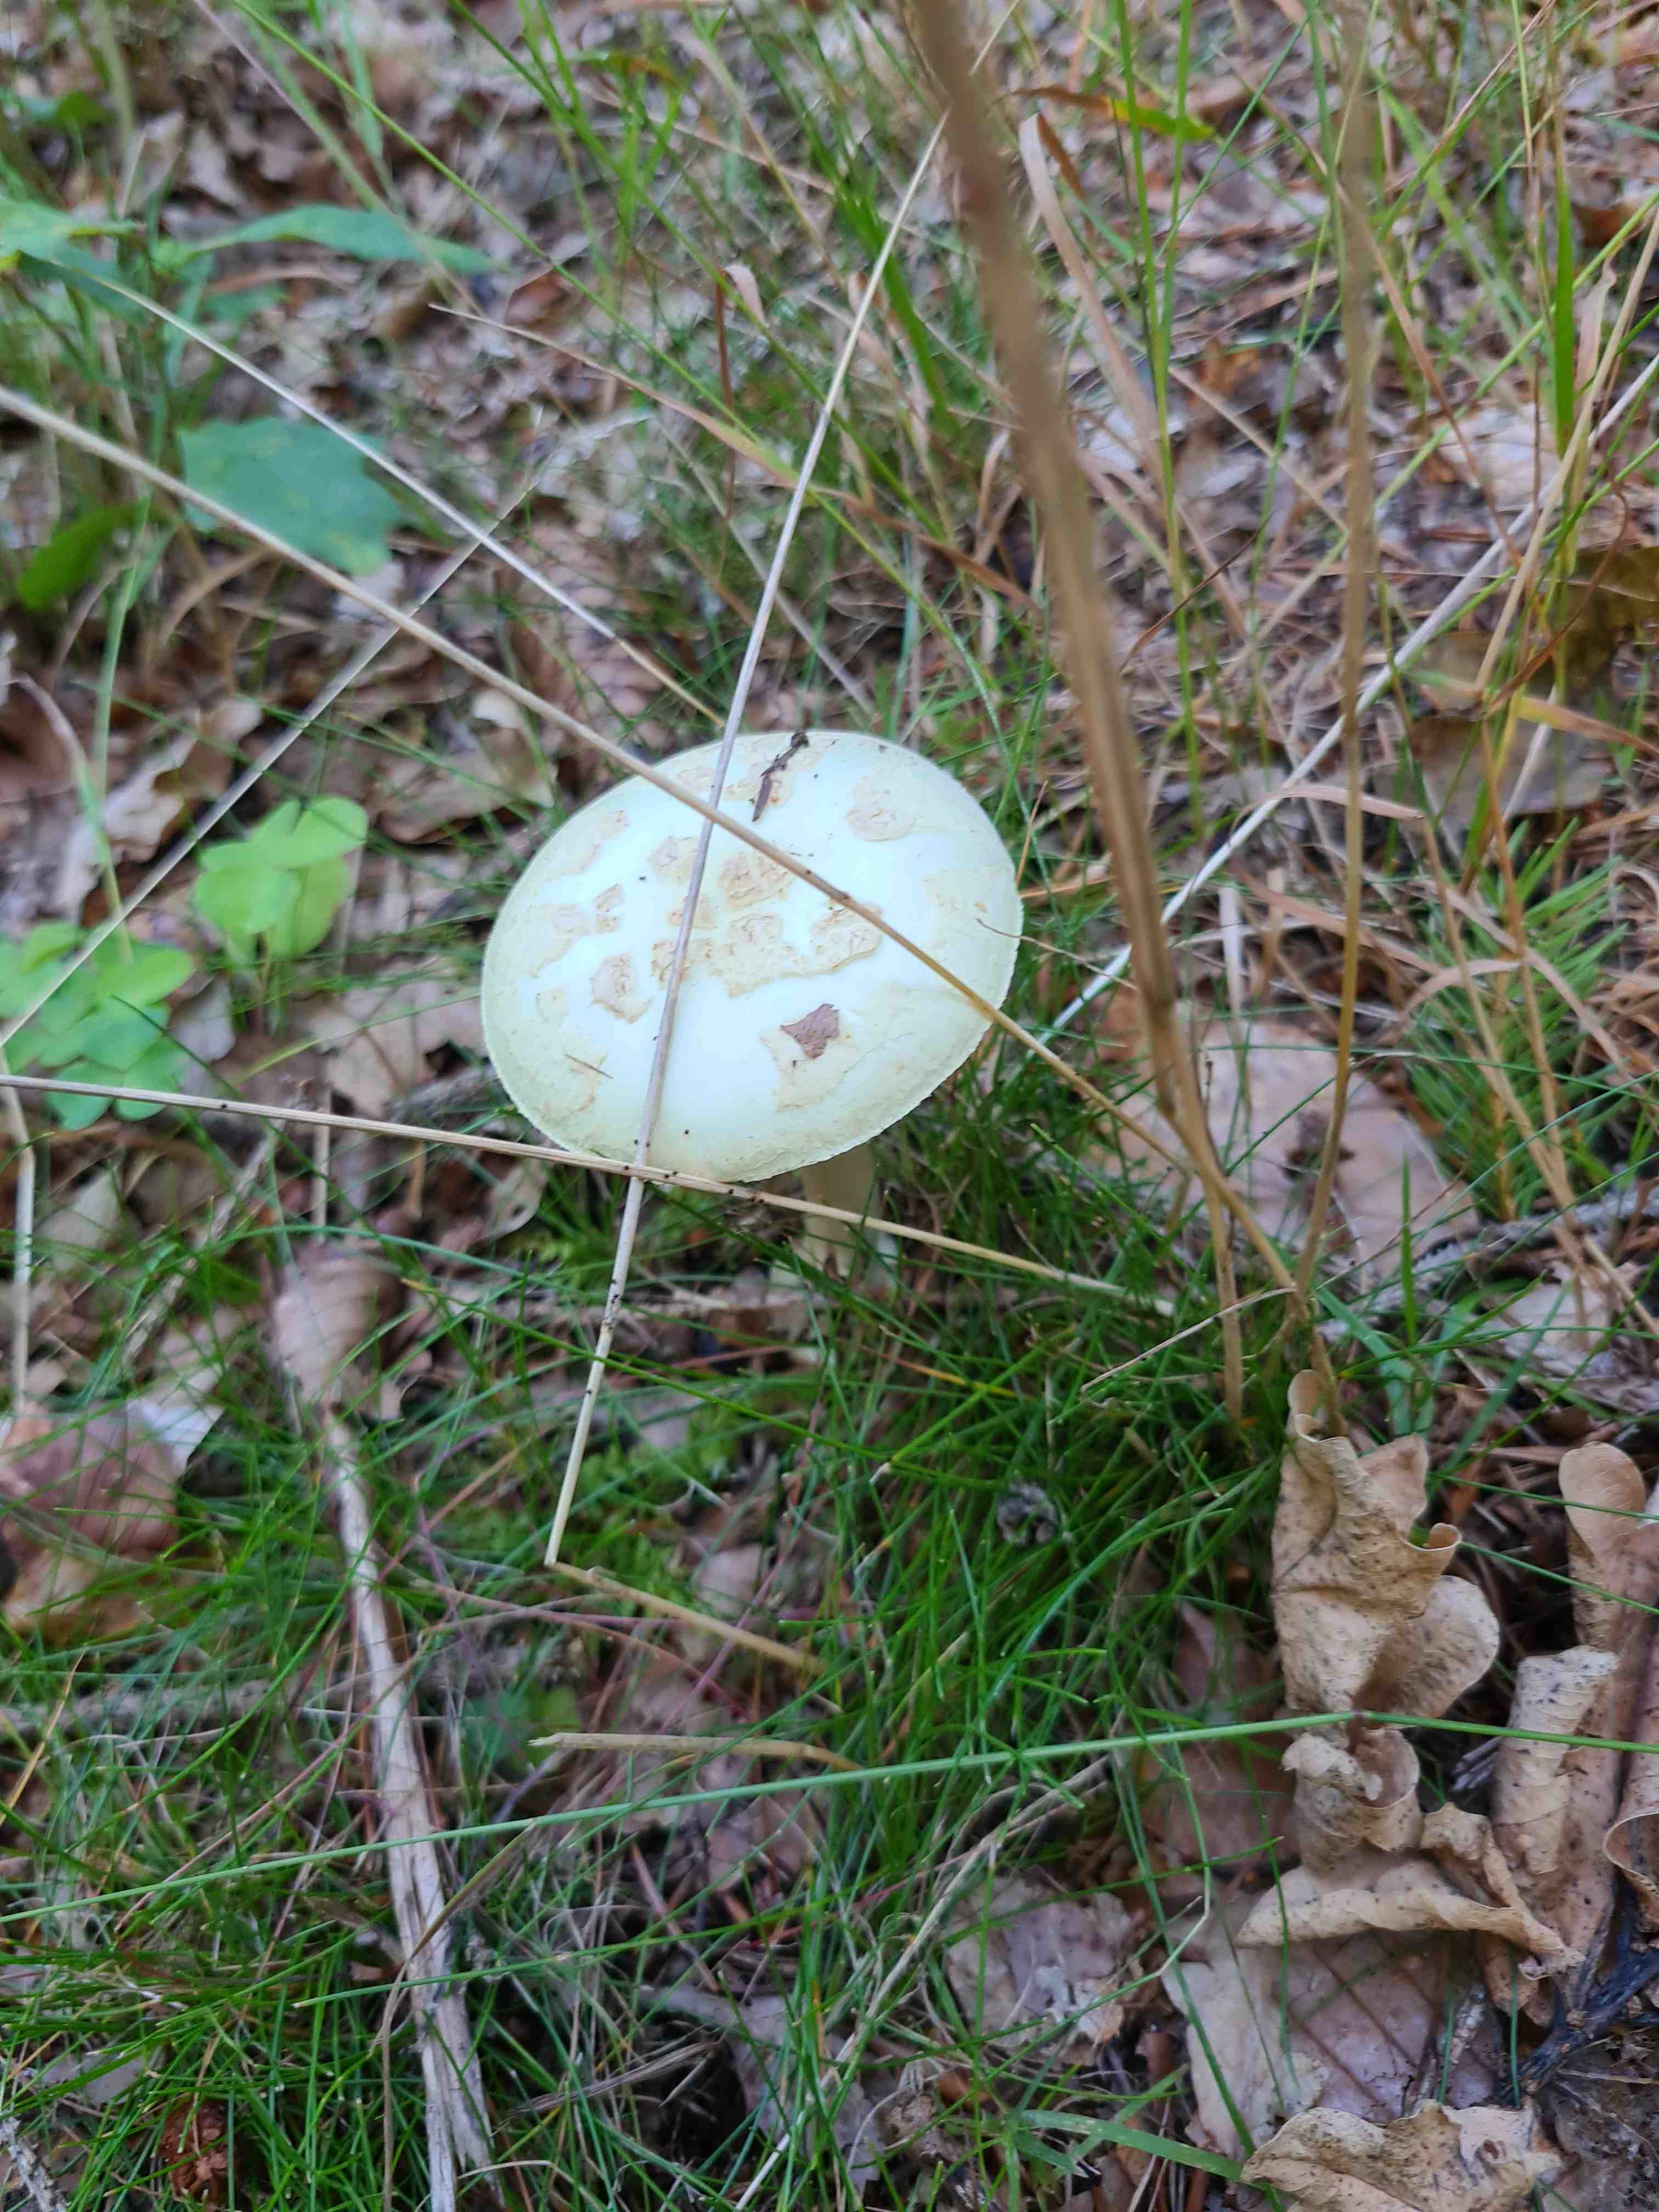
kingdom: Fungi
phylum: Basidiomycota
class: Agaricomycetes
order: Agaricales
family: Amanitaceae
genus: Amanita
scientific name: Amanita citrina
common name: kugleknoldet fluesvamp
